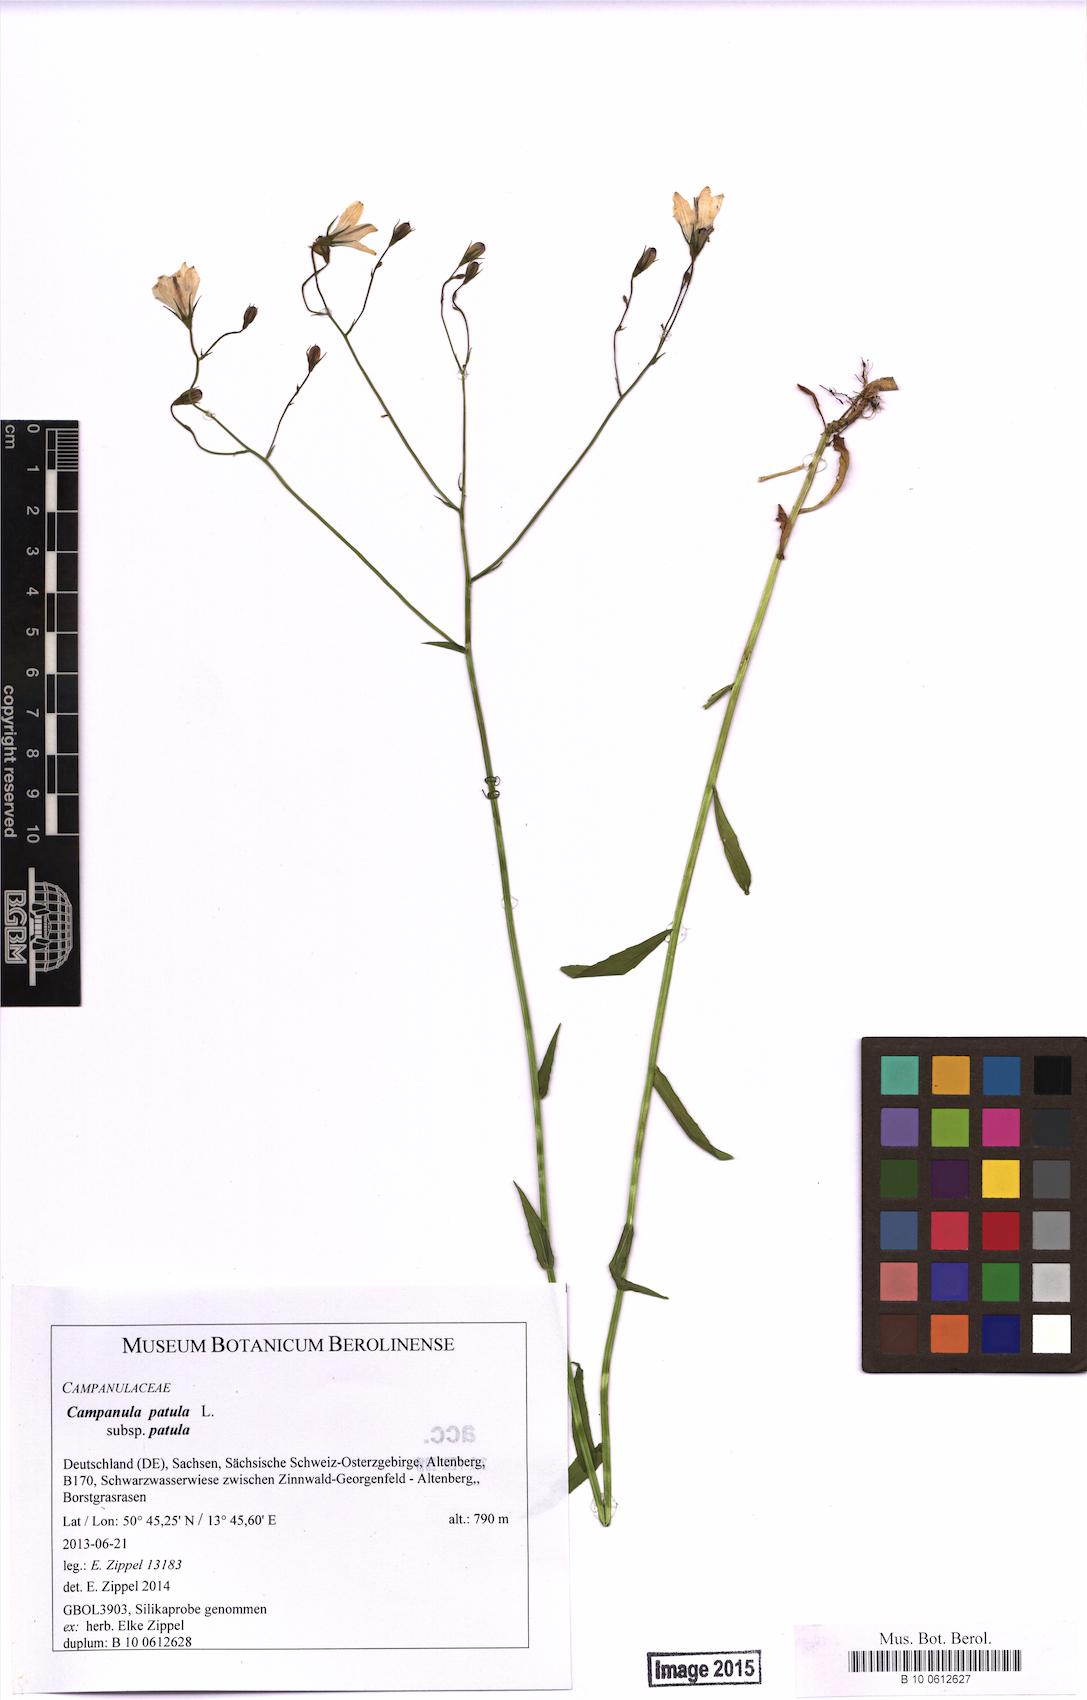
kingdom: Plantae
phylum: Tracheophyta
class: Magnoliopsida
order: Asterales
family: Campanulaceae
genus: Campanula
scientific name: Campanula patula
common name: Spreading bellflower
